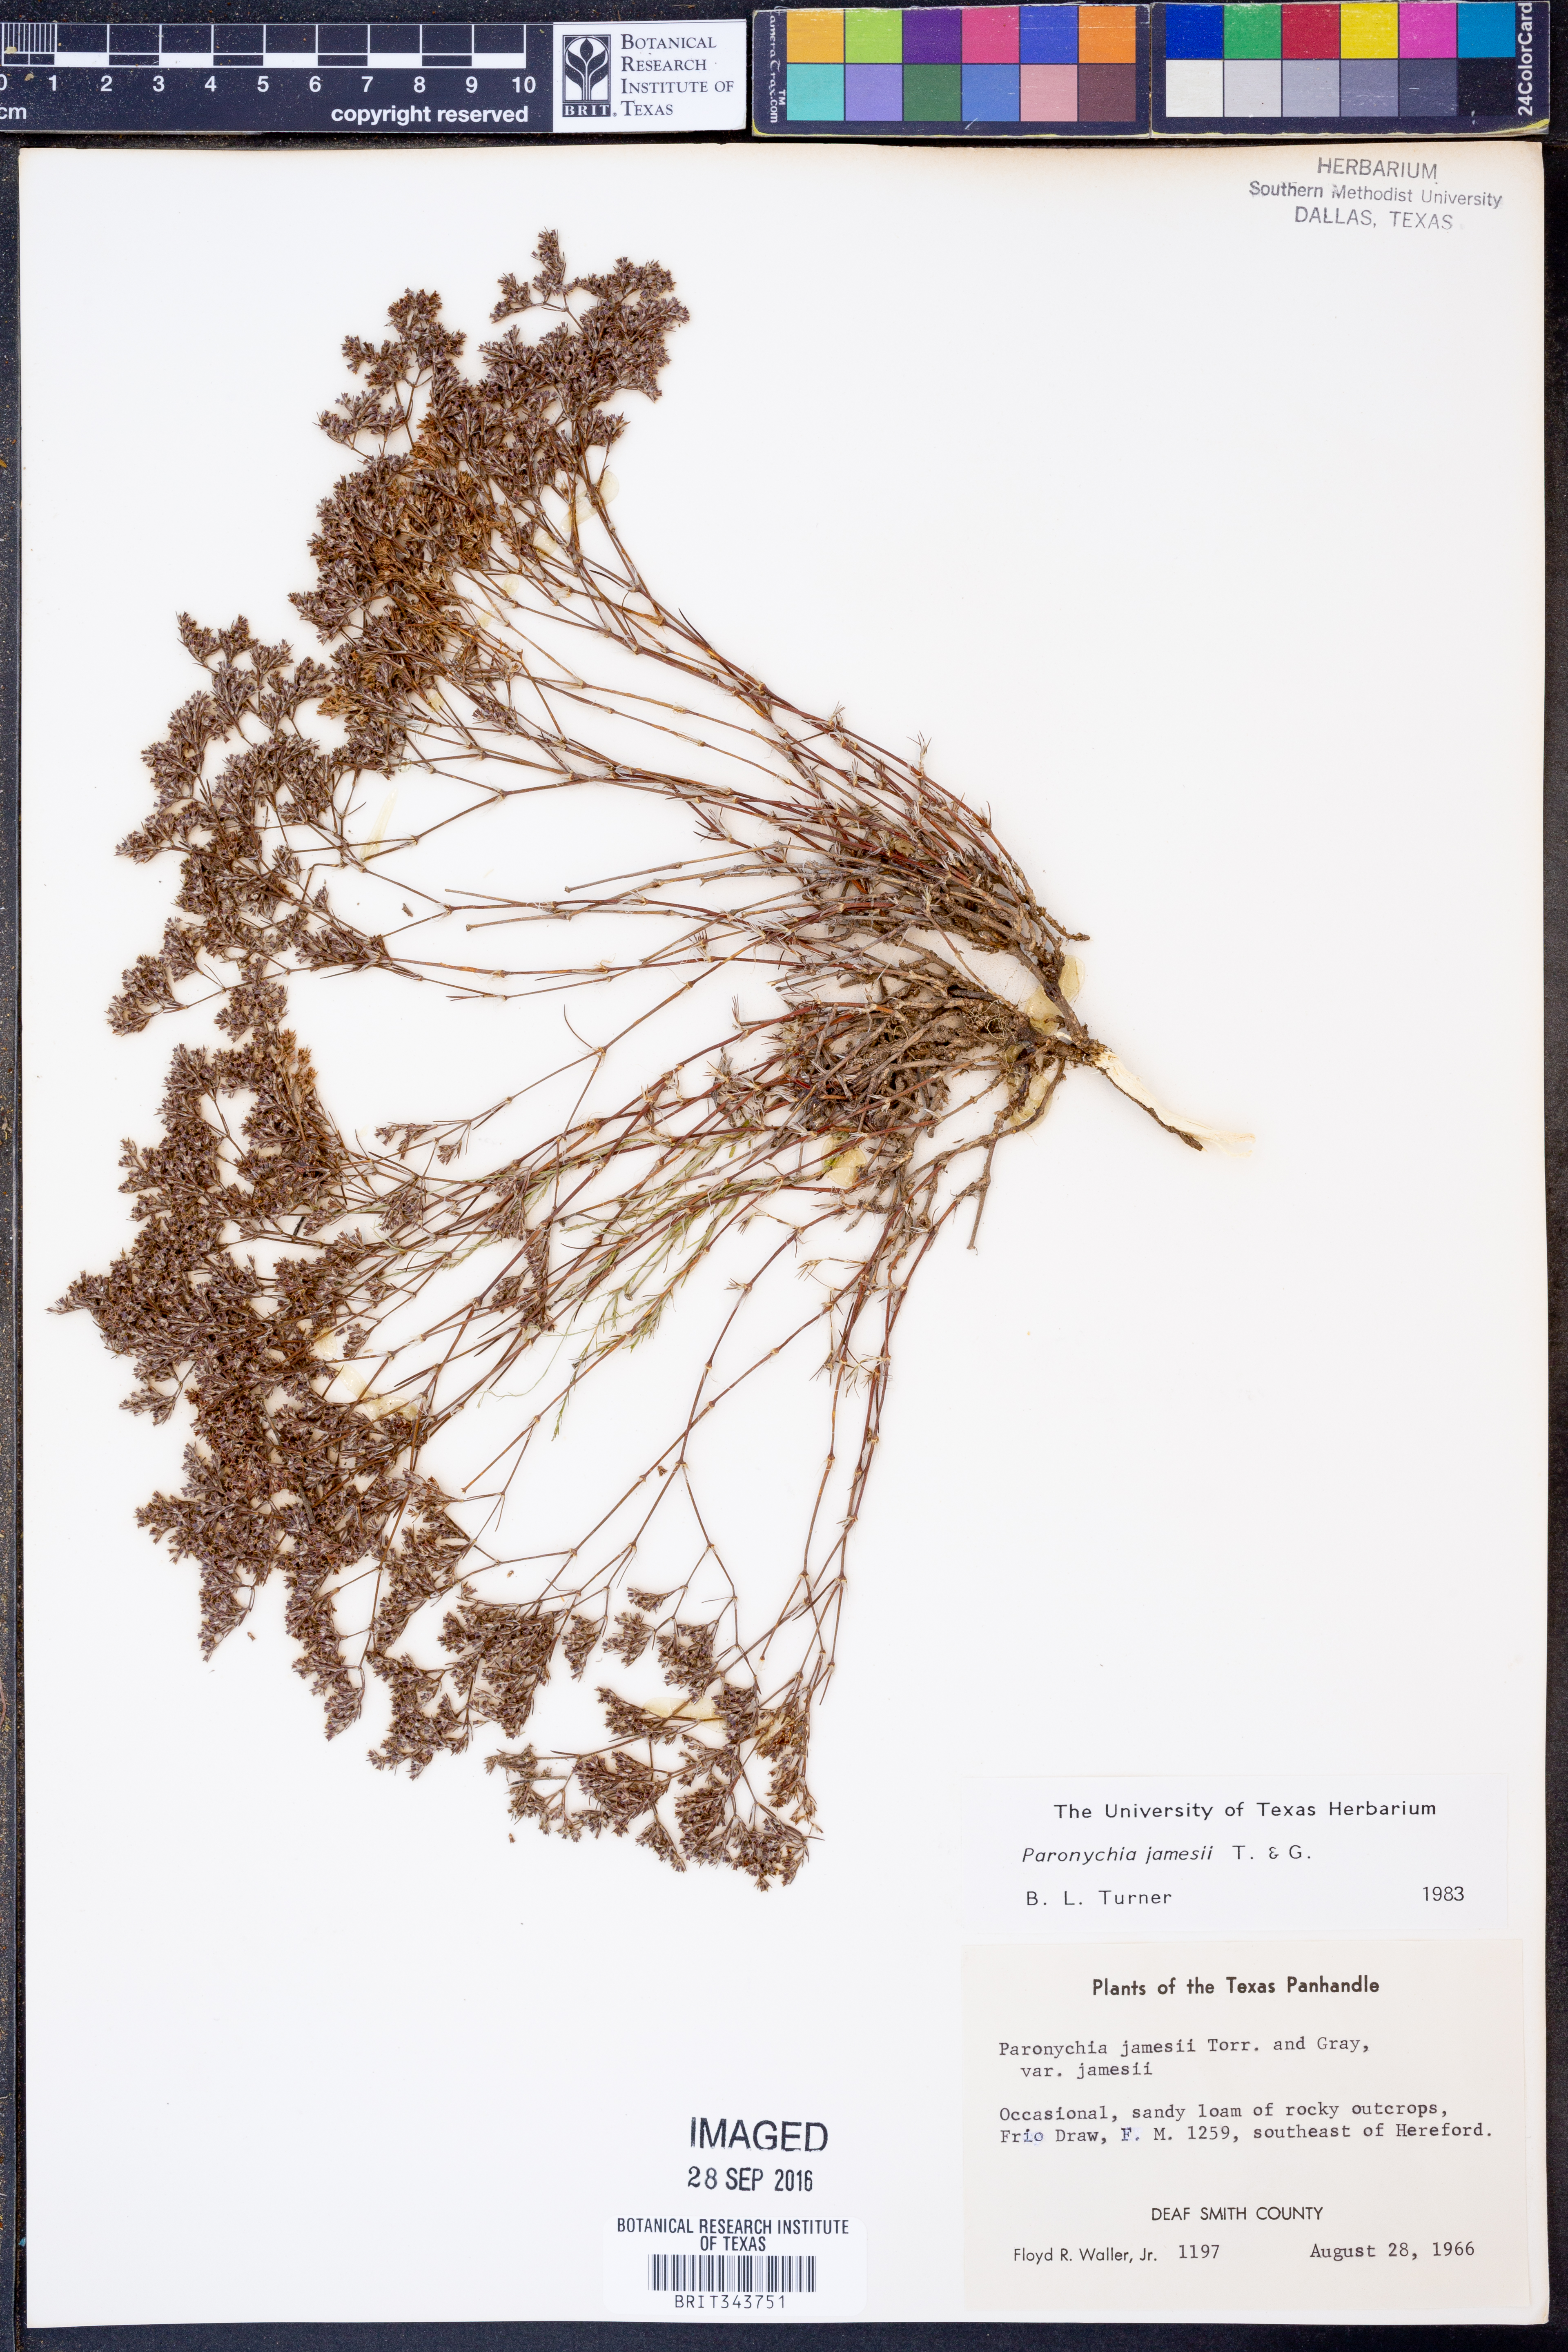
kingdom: Plantae
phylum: Tracheophyta
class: Magnoliopsida
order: Caryophyllales
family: Caryophyllaceae
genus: Paronychia
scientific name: Paronychia jamesii
